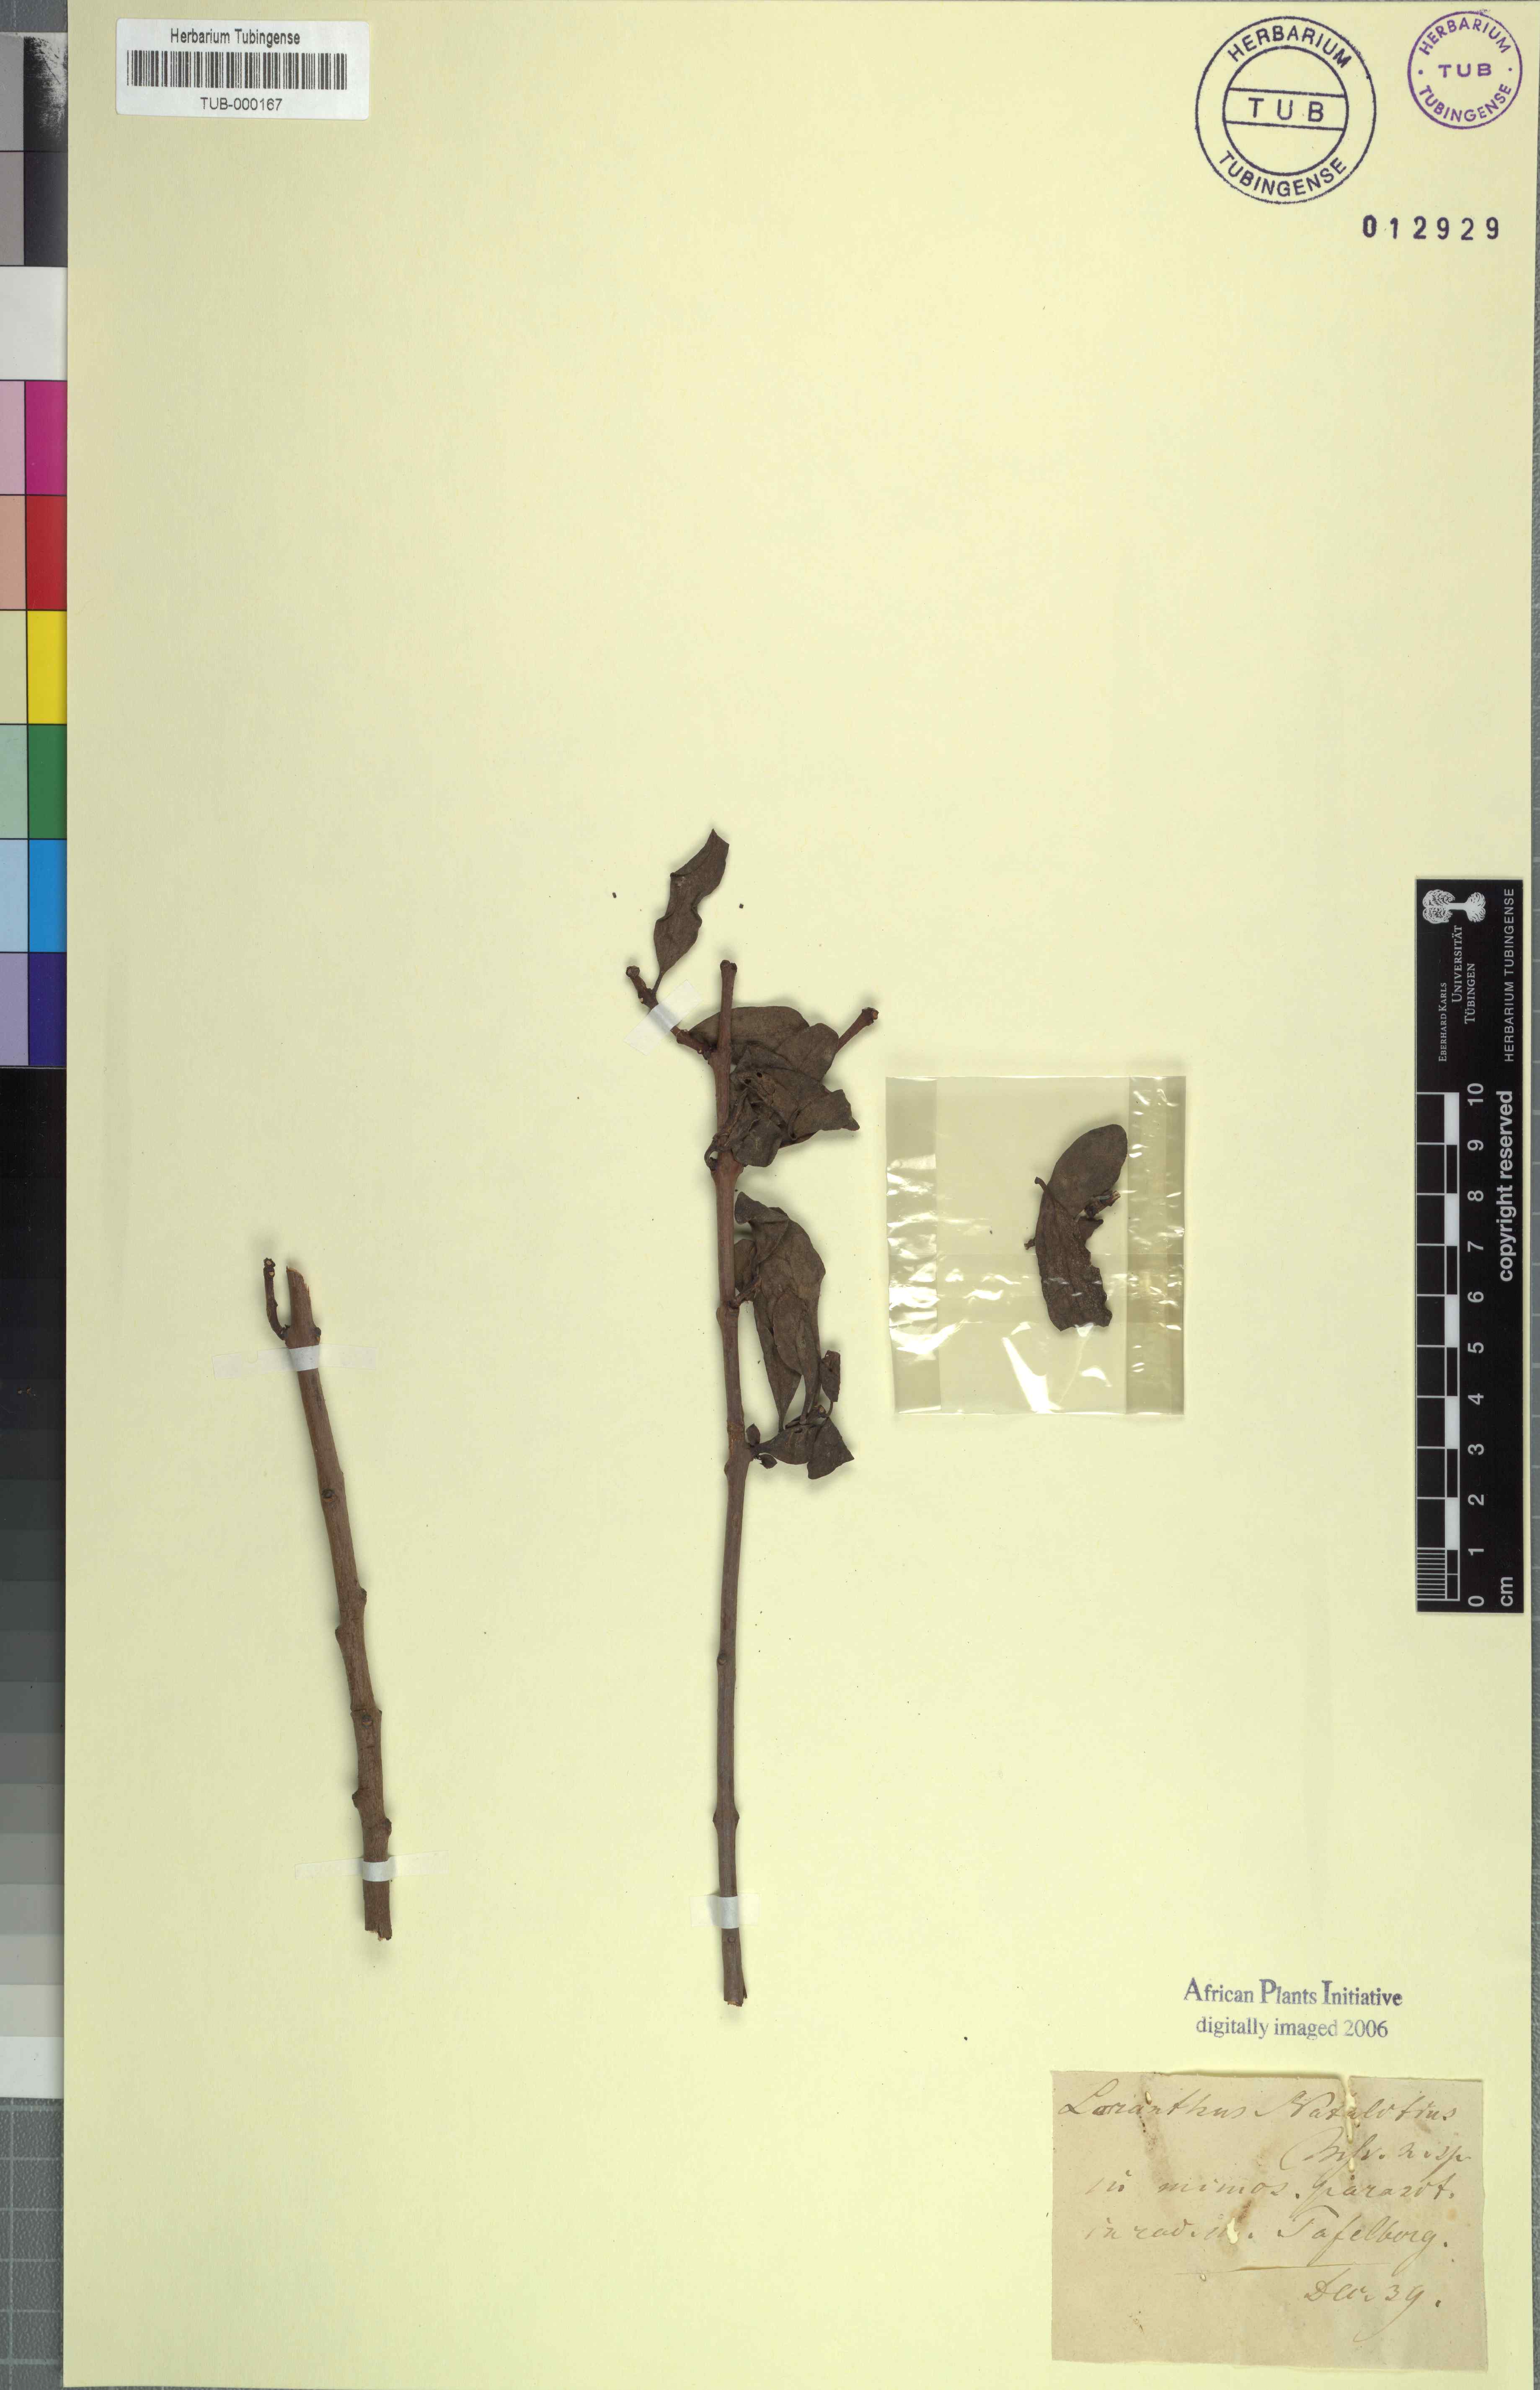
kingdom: Plantae
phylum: Tracheophyta
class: Magnoliopsida
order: Santalales
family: Loranthaceae
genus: Agelanthus
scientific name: Agelanthus natalitius
